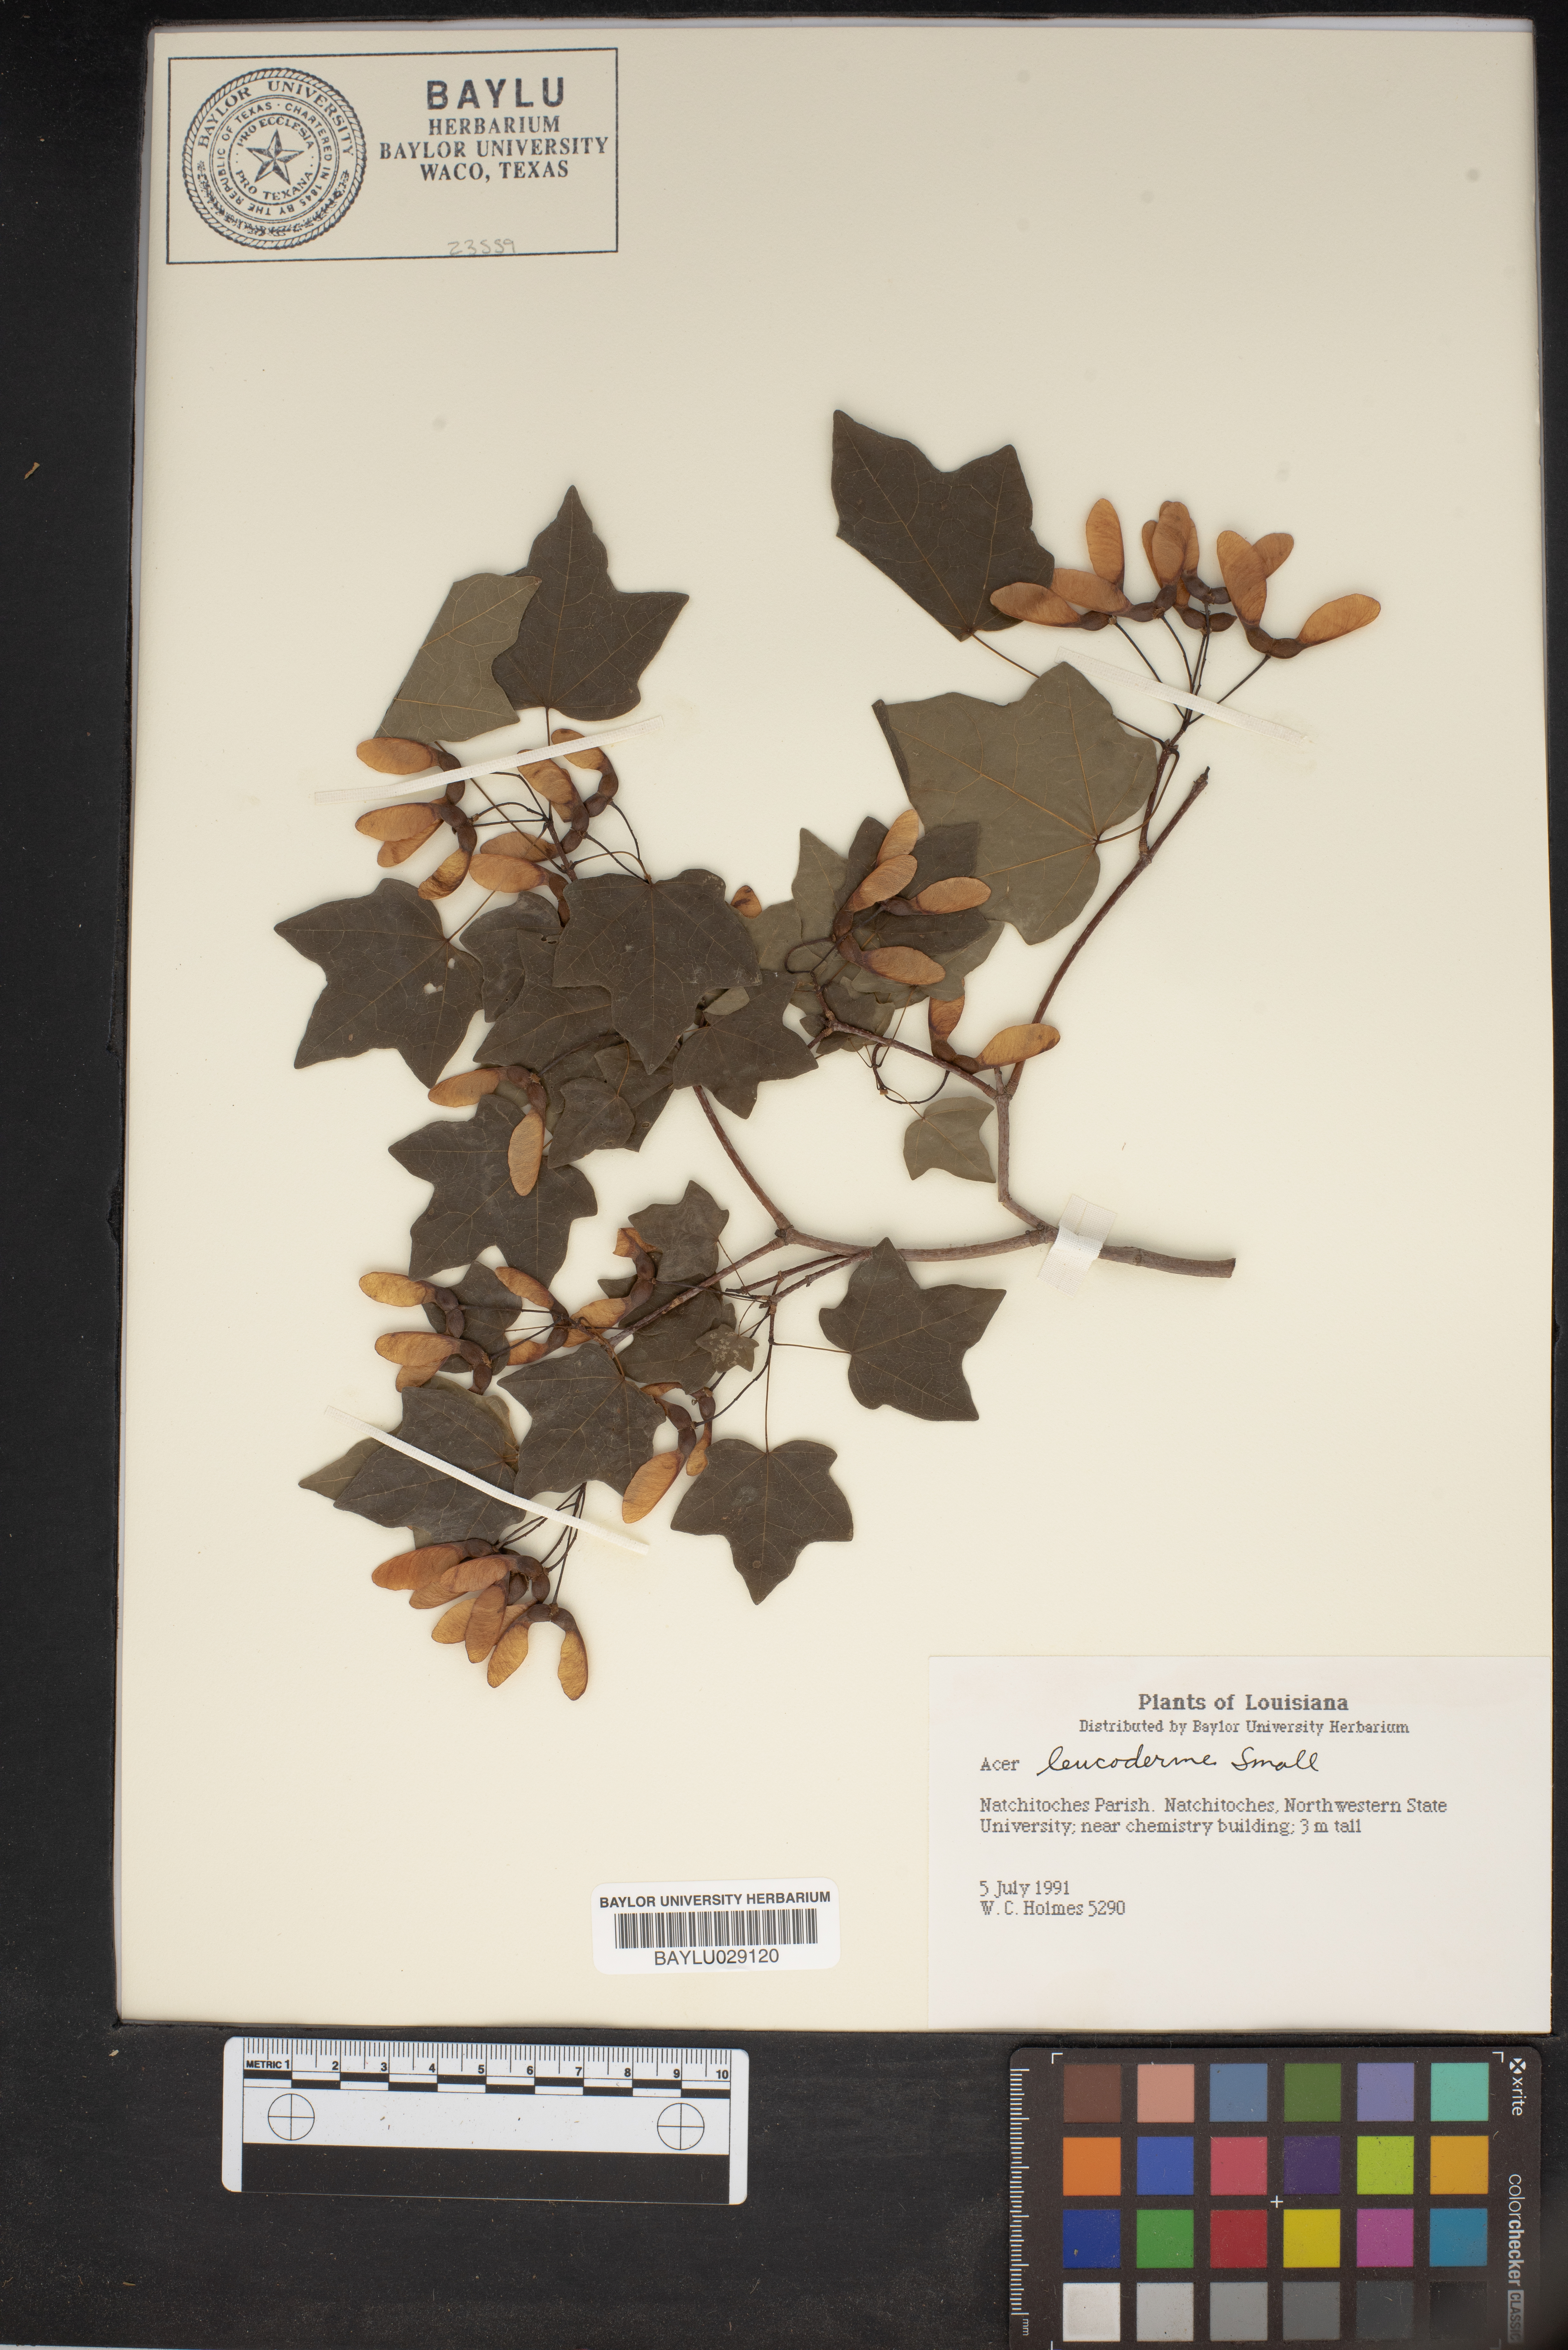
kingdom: Plantae
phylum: Tracheophyta
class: Magnoliopsida
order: Sapindales
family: Sapindaceae
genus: Acer
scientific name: Acer leucoderme
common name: Chalk maple
